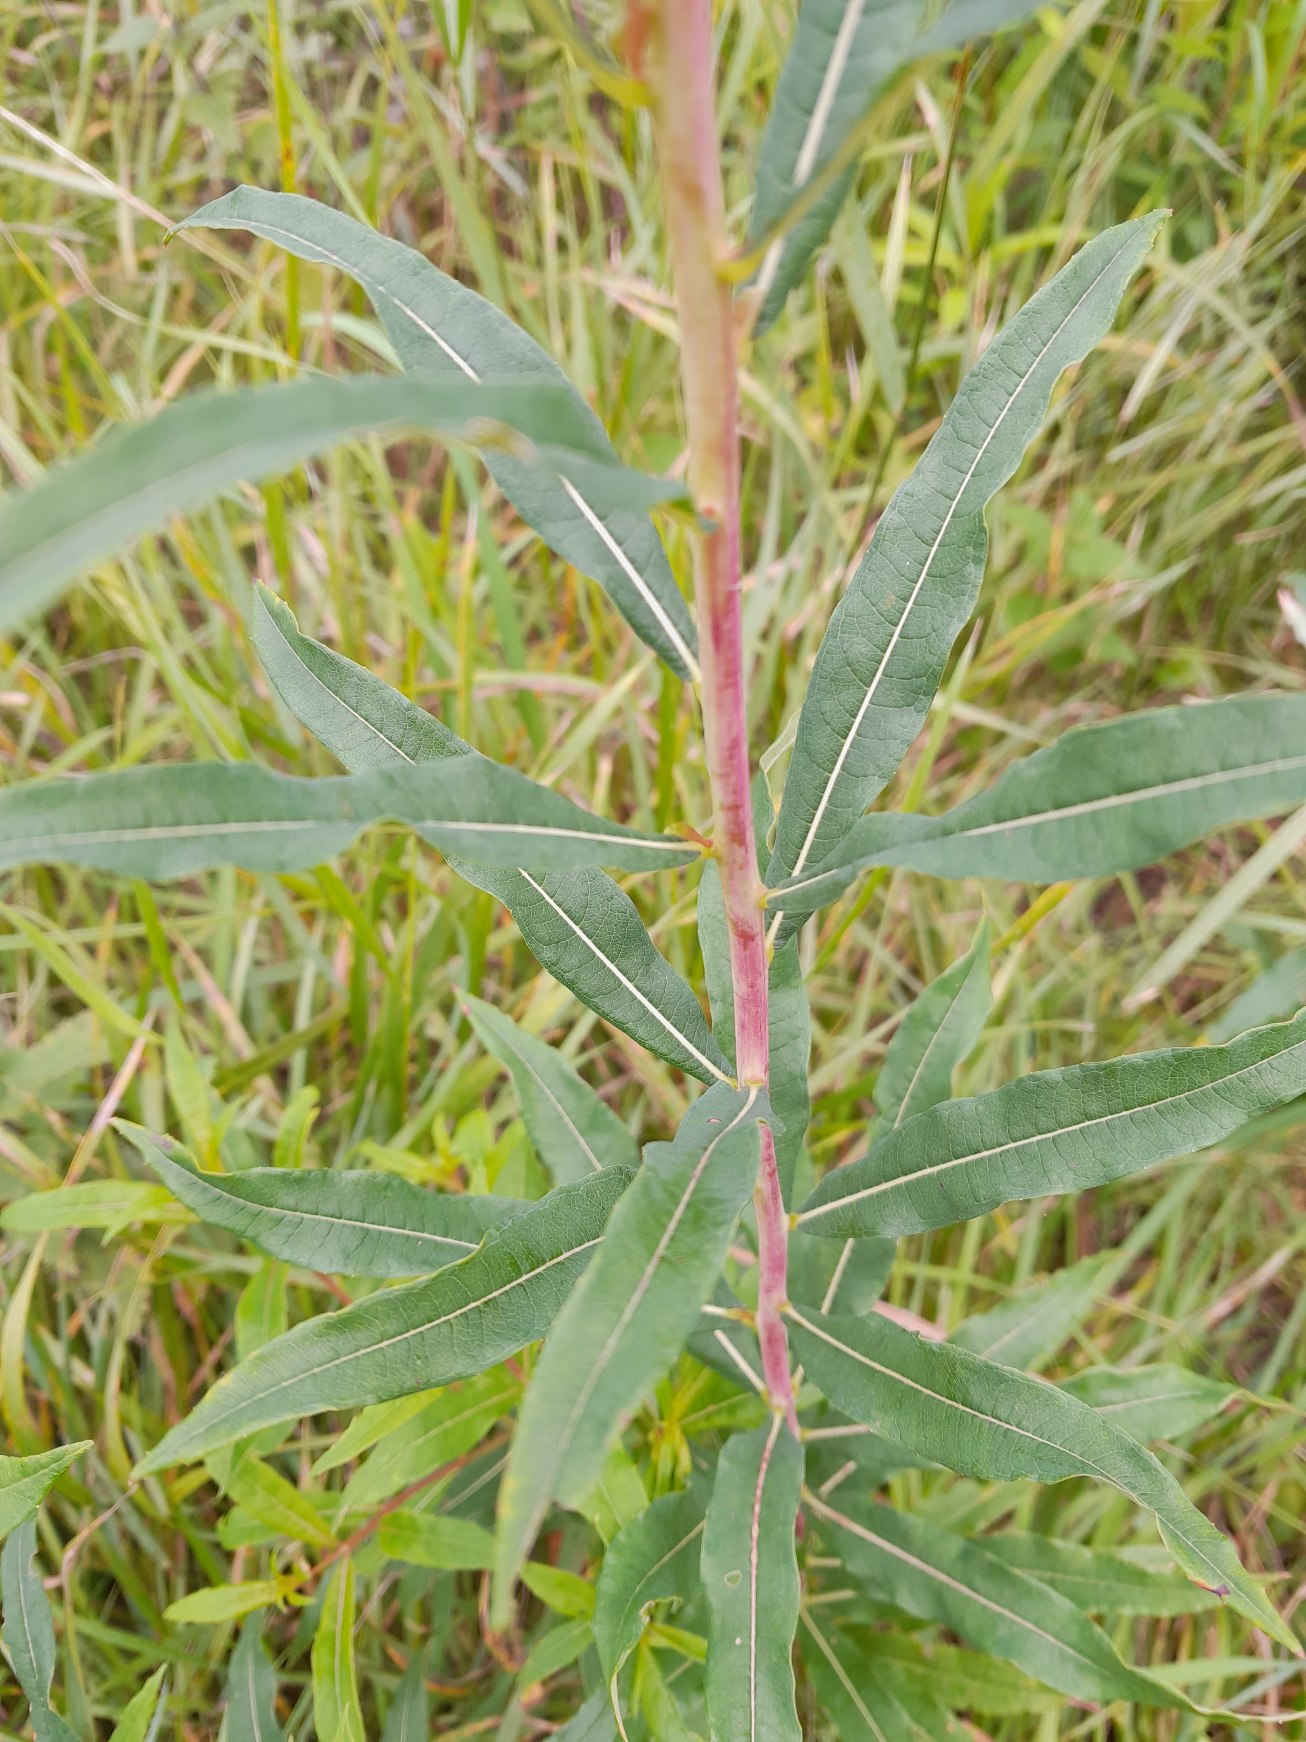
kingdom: Plantae
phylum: Tracheophyta
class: Magnoliopsida
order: Myrtales
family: Onagraceae
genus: Chamaenerion
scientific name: Chamaenerion angustifolium
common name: Gederams
